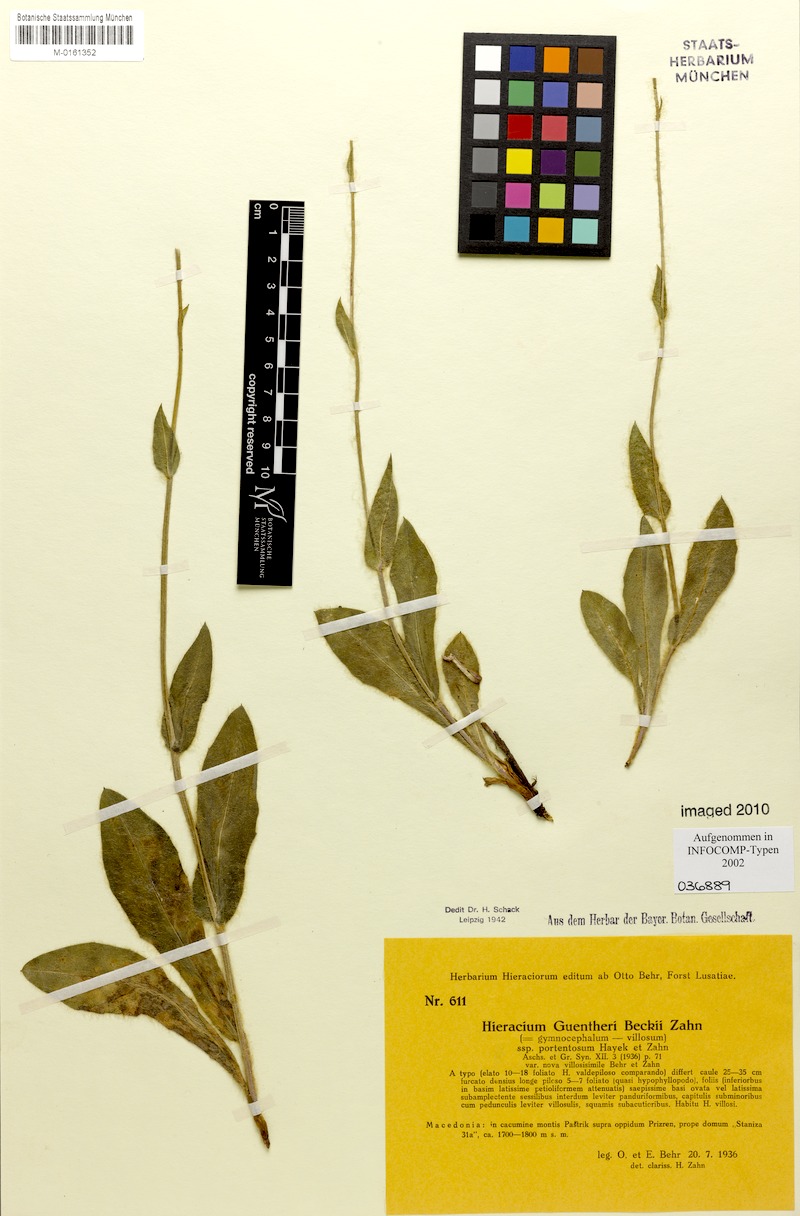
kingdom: Plantae
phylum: Tracheophyta
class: Magnoliopsida
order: Asterales
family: Asteraceae
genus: Hieracium
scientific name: Hieracium guentheri-beckii
